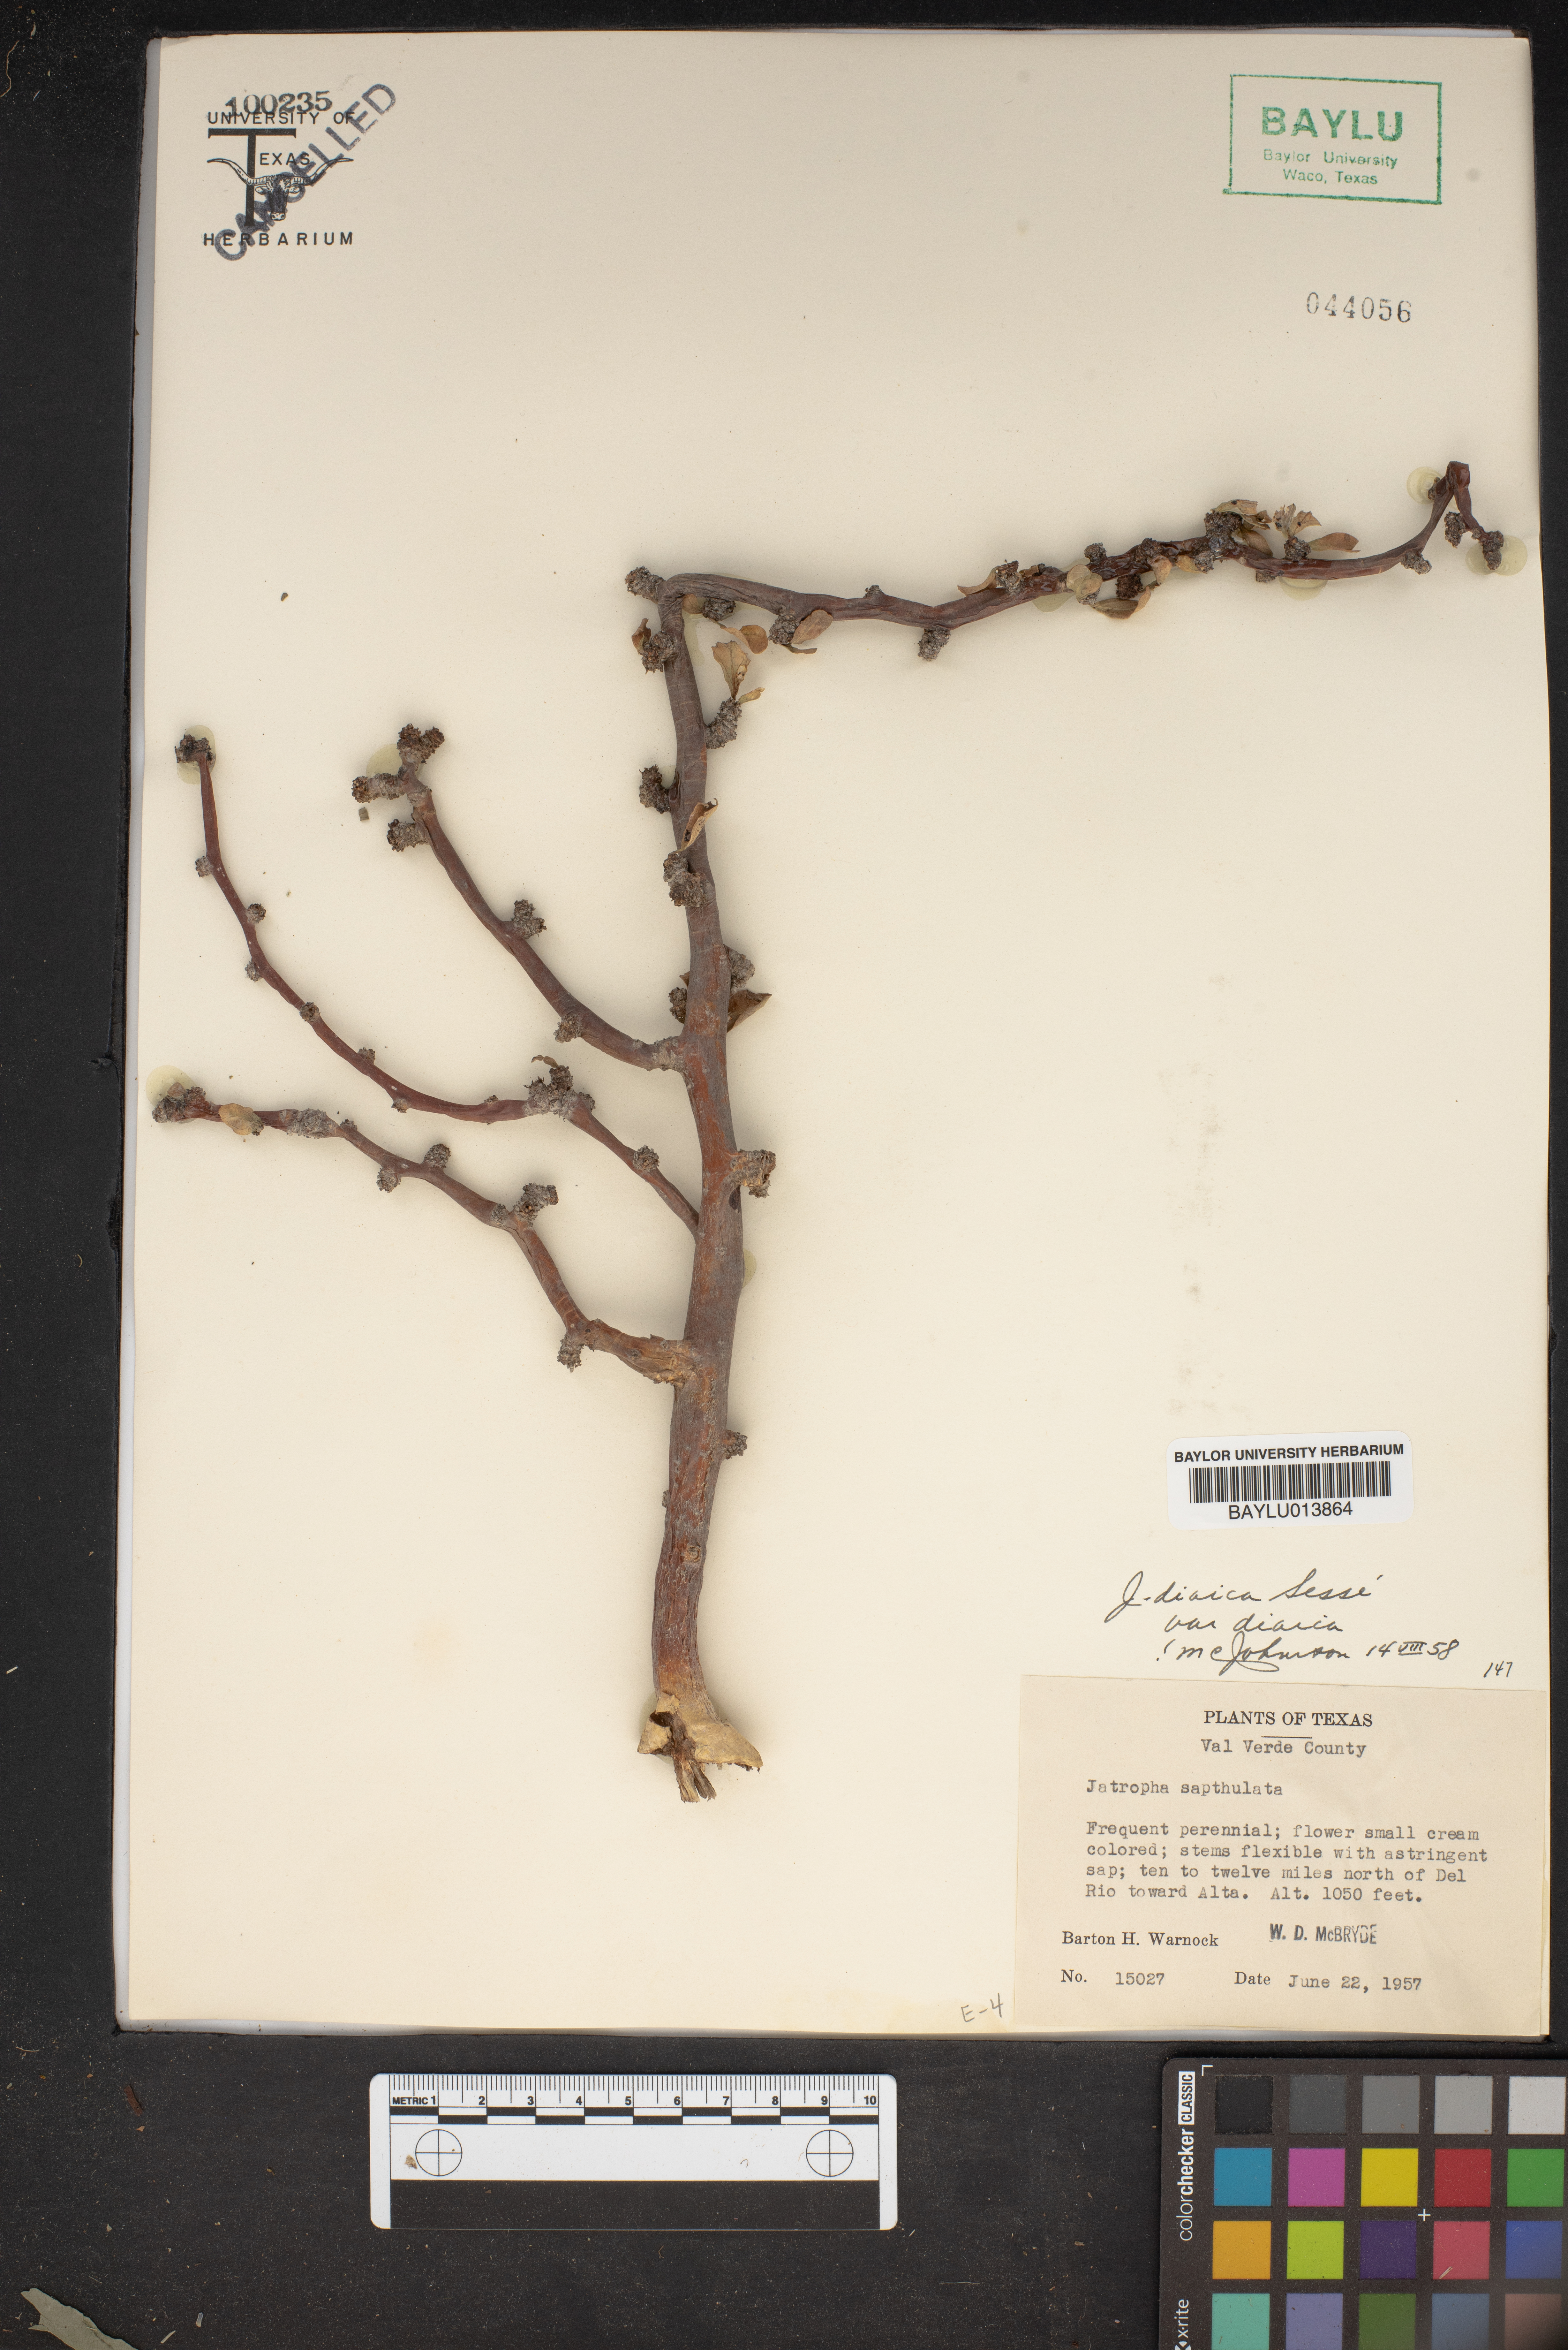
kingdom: Plantae
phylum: Tracheophyta
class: Magnoliopsida
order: Malpighiales
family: Euphorbiaceae
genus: Jatropha
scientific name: Jatropha dioica
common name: Leatherstem
